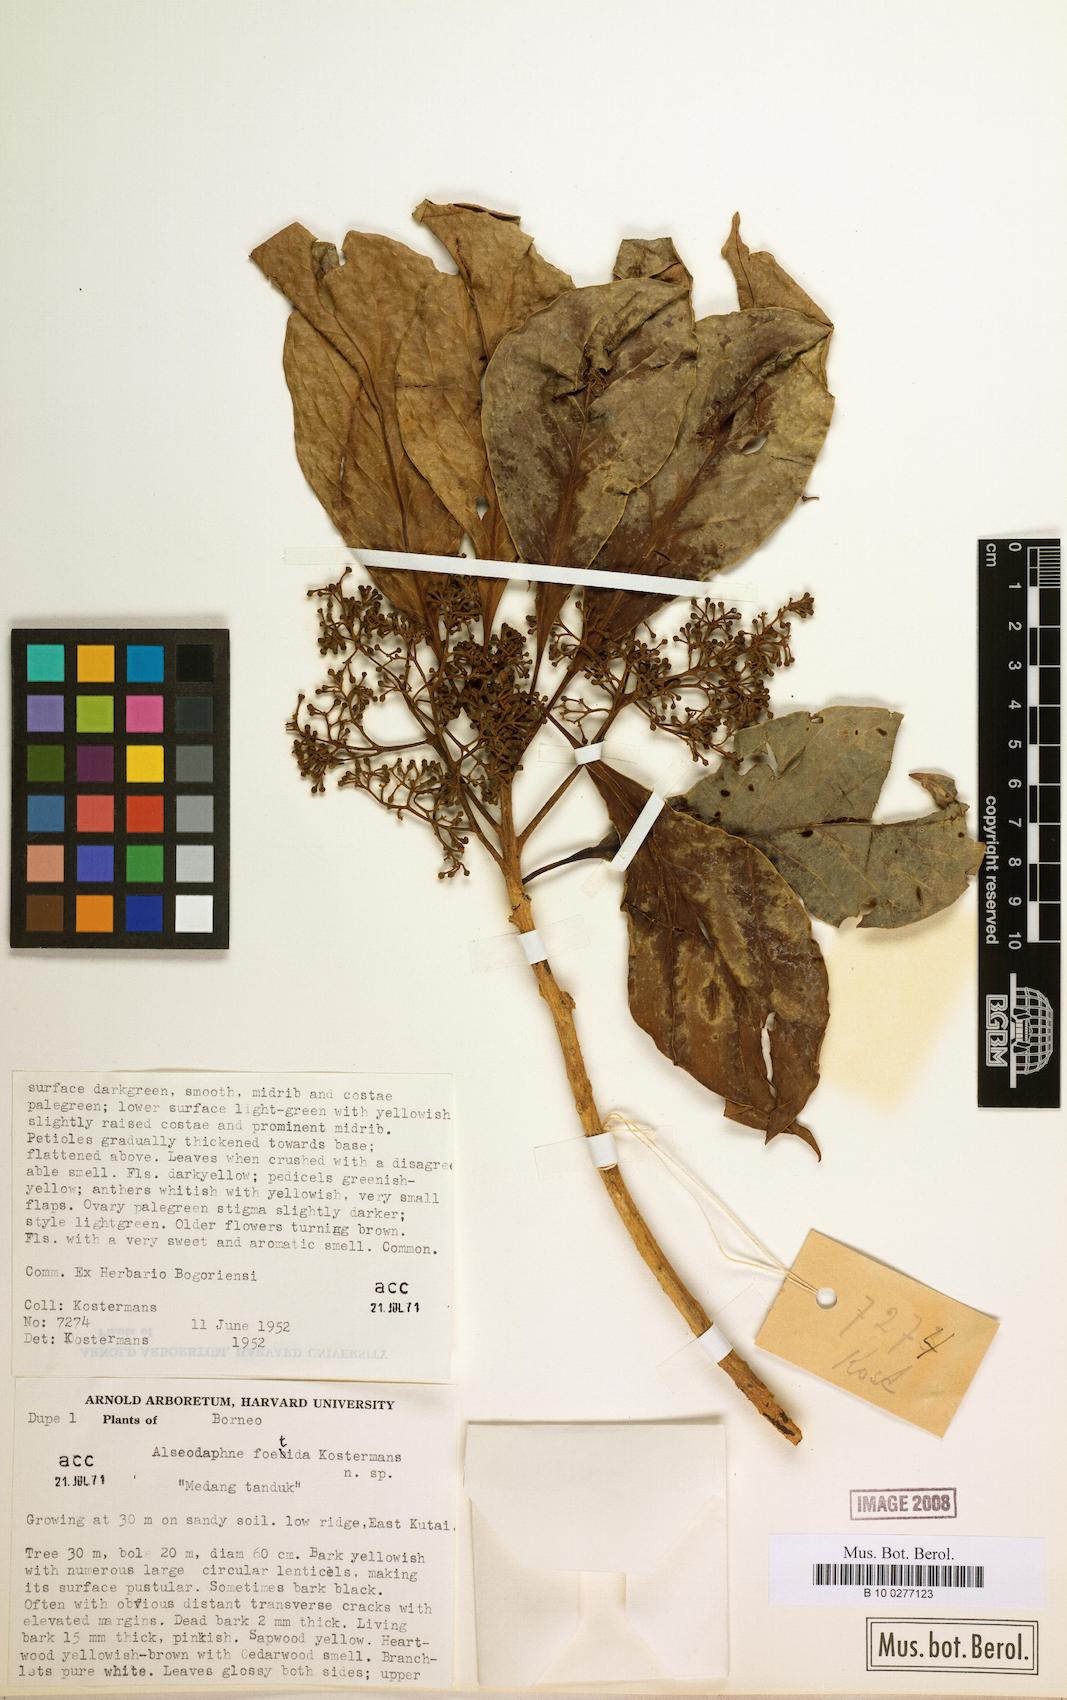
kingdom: Plantae
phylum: Tracheophyta
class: Magnoliopsida
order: Laurales
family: Lauraceae
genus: Nothaphoebe
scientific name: Nothaphoebe foetida
